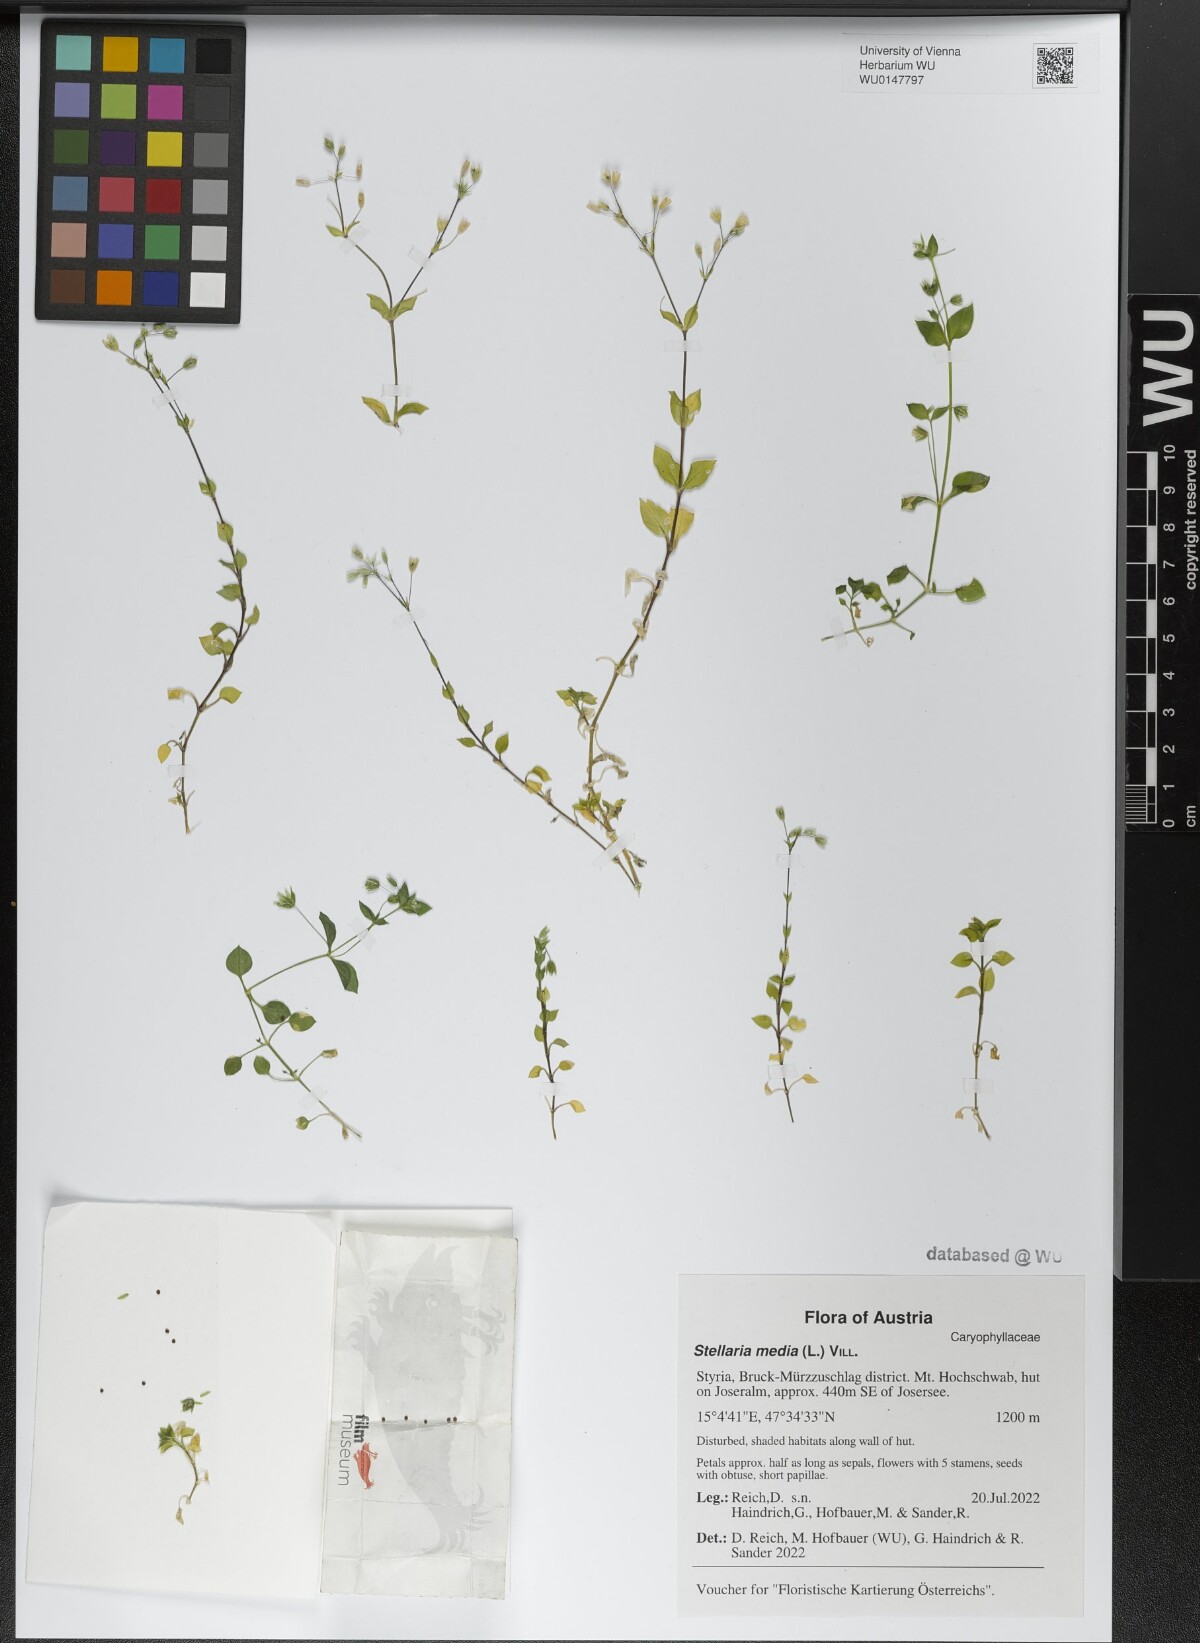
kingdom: Plantae
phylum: Tracheophyta
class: Magnoliopsida
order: Caryophyllales
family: Caryophyllaceae
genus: Stellaria
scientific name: Stellaria media
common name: Common chickweed
